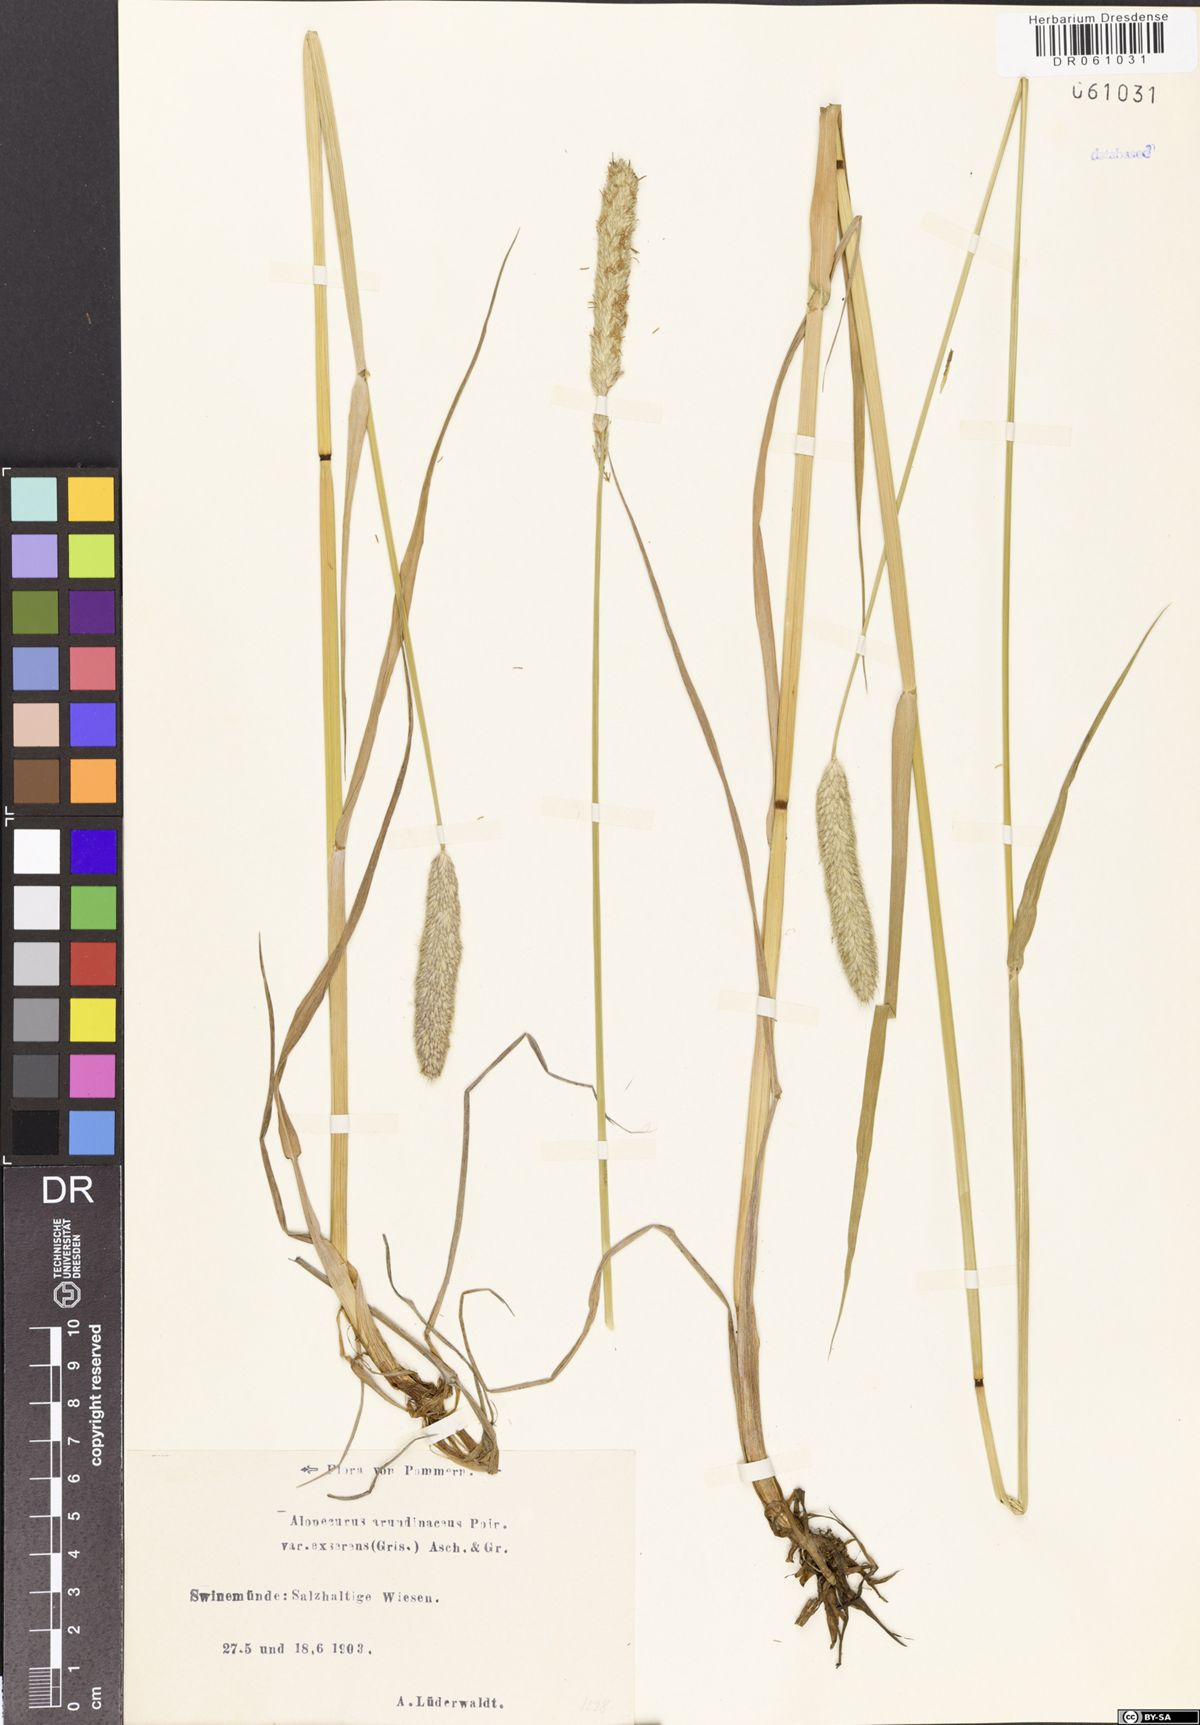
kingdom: Plantae
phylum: Tracheophyta
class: Liliopsida
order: Poales
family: Poaceae
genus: Alopecurus
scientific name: Alopecurus arundinaceus
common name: Creeping meadow foxtail
